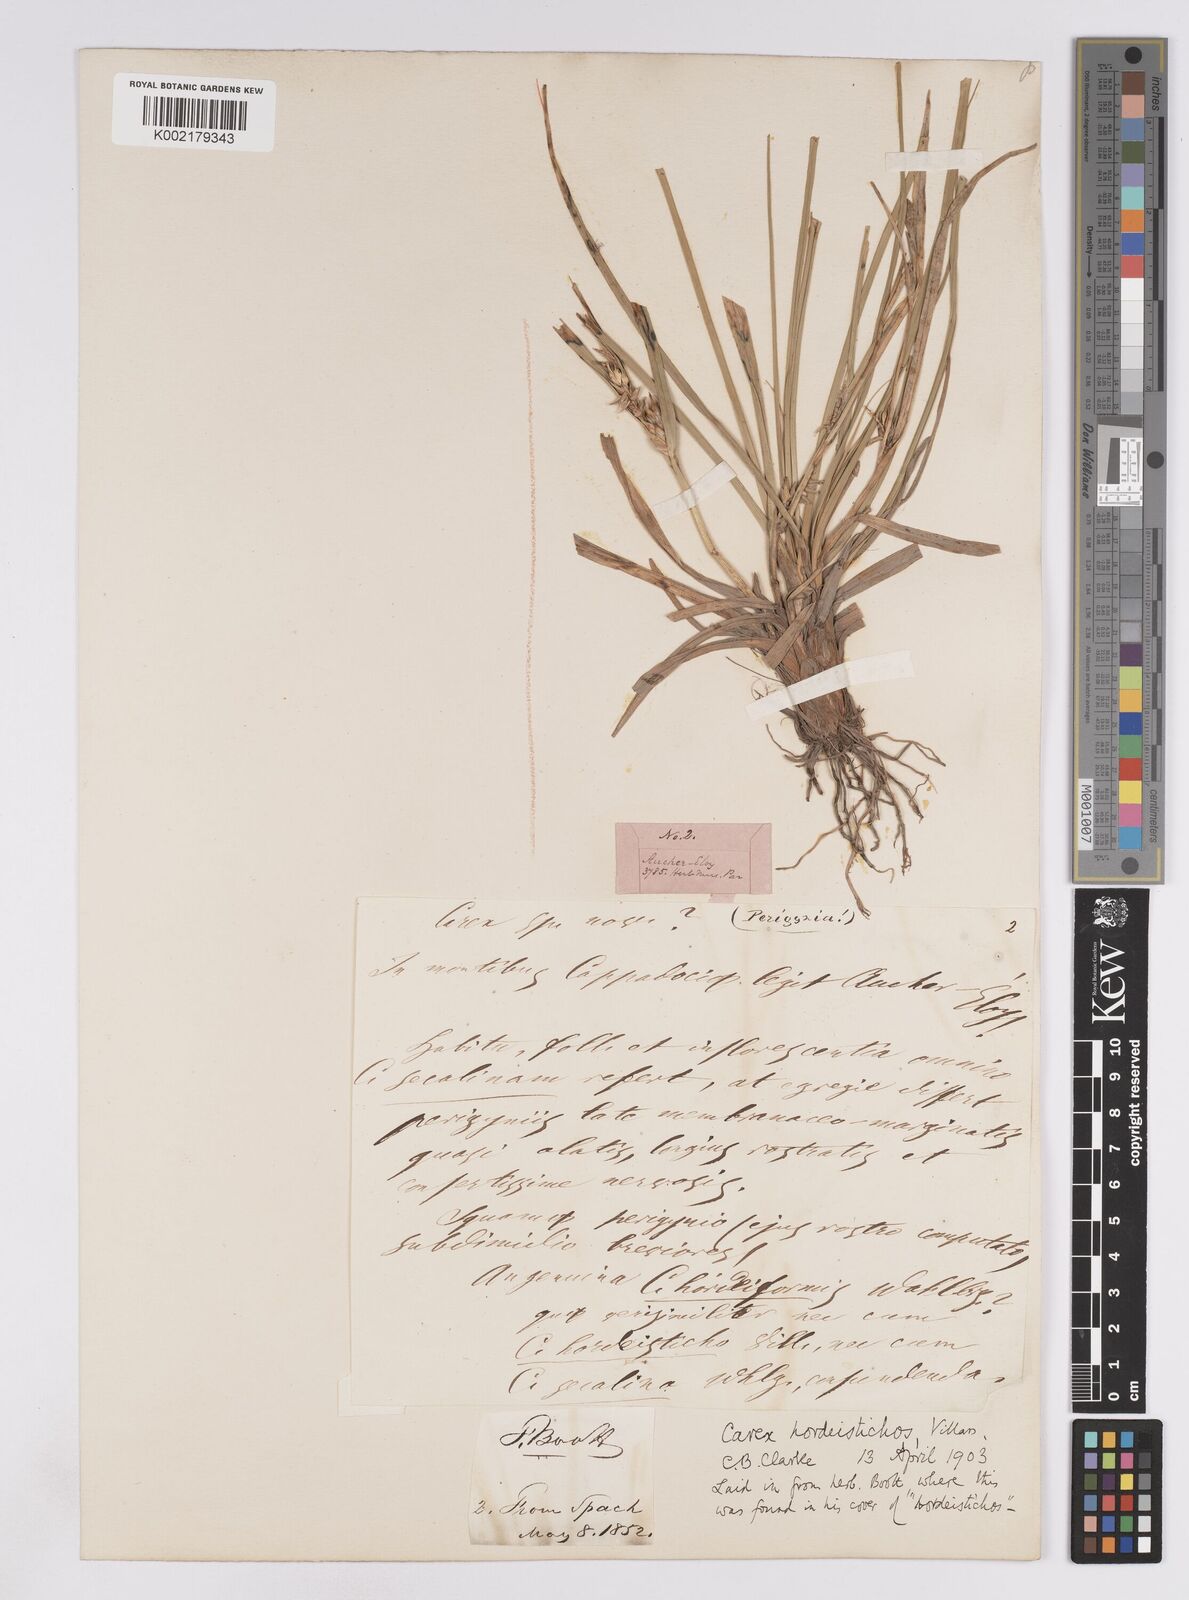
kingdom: Plantae
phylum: Tracheophyta
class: Liliopsida
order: Poales
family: Cyperaceae
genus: Carex
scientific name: Carex hordeistichos
